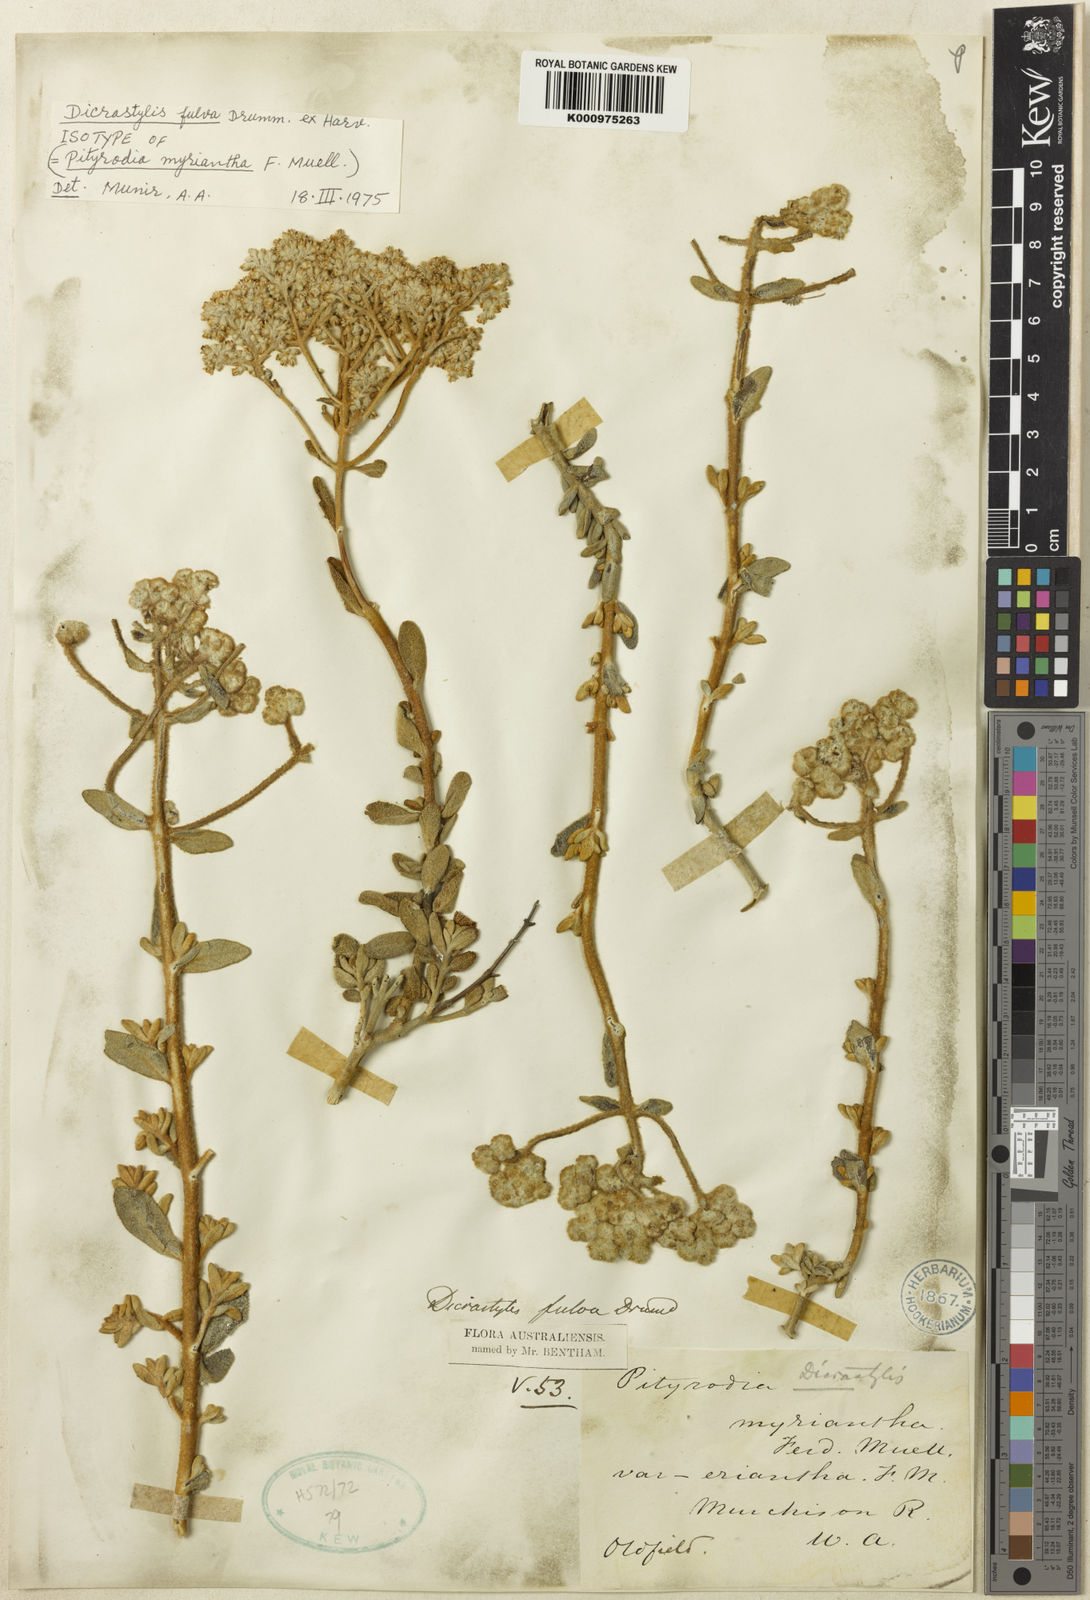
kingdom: Plantae
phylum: Tracheophyta
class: Magnoliopsida
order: Lamiales
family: Lamiaceae
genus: Dicrastylis
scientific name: Dicrastylis fulva
